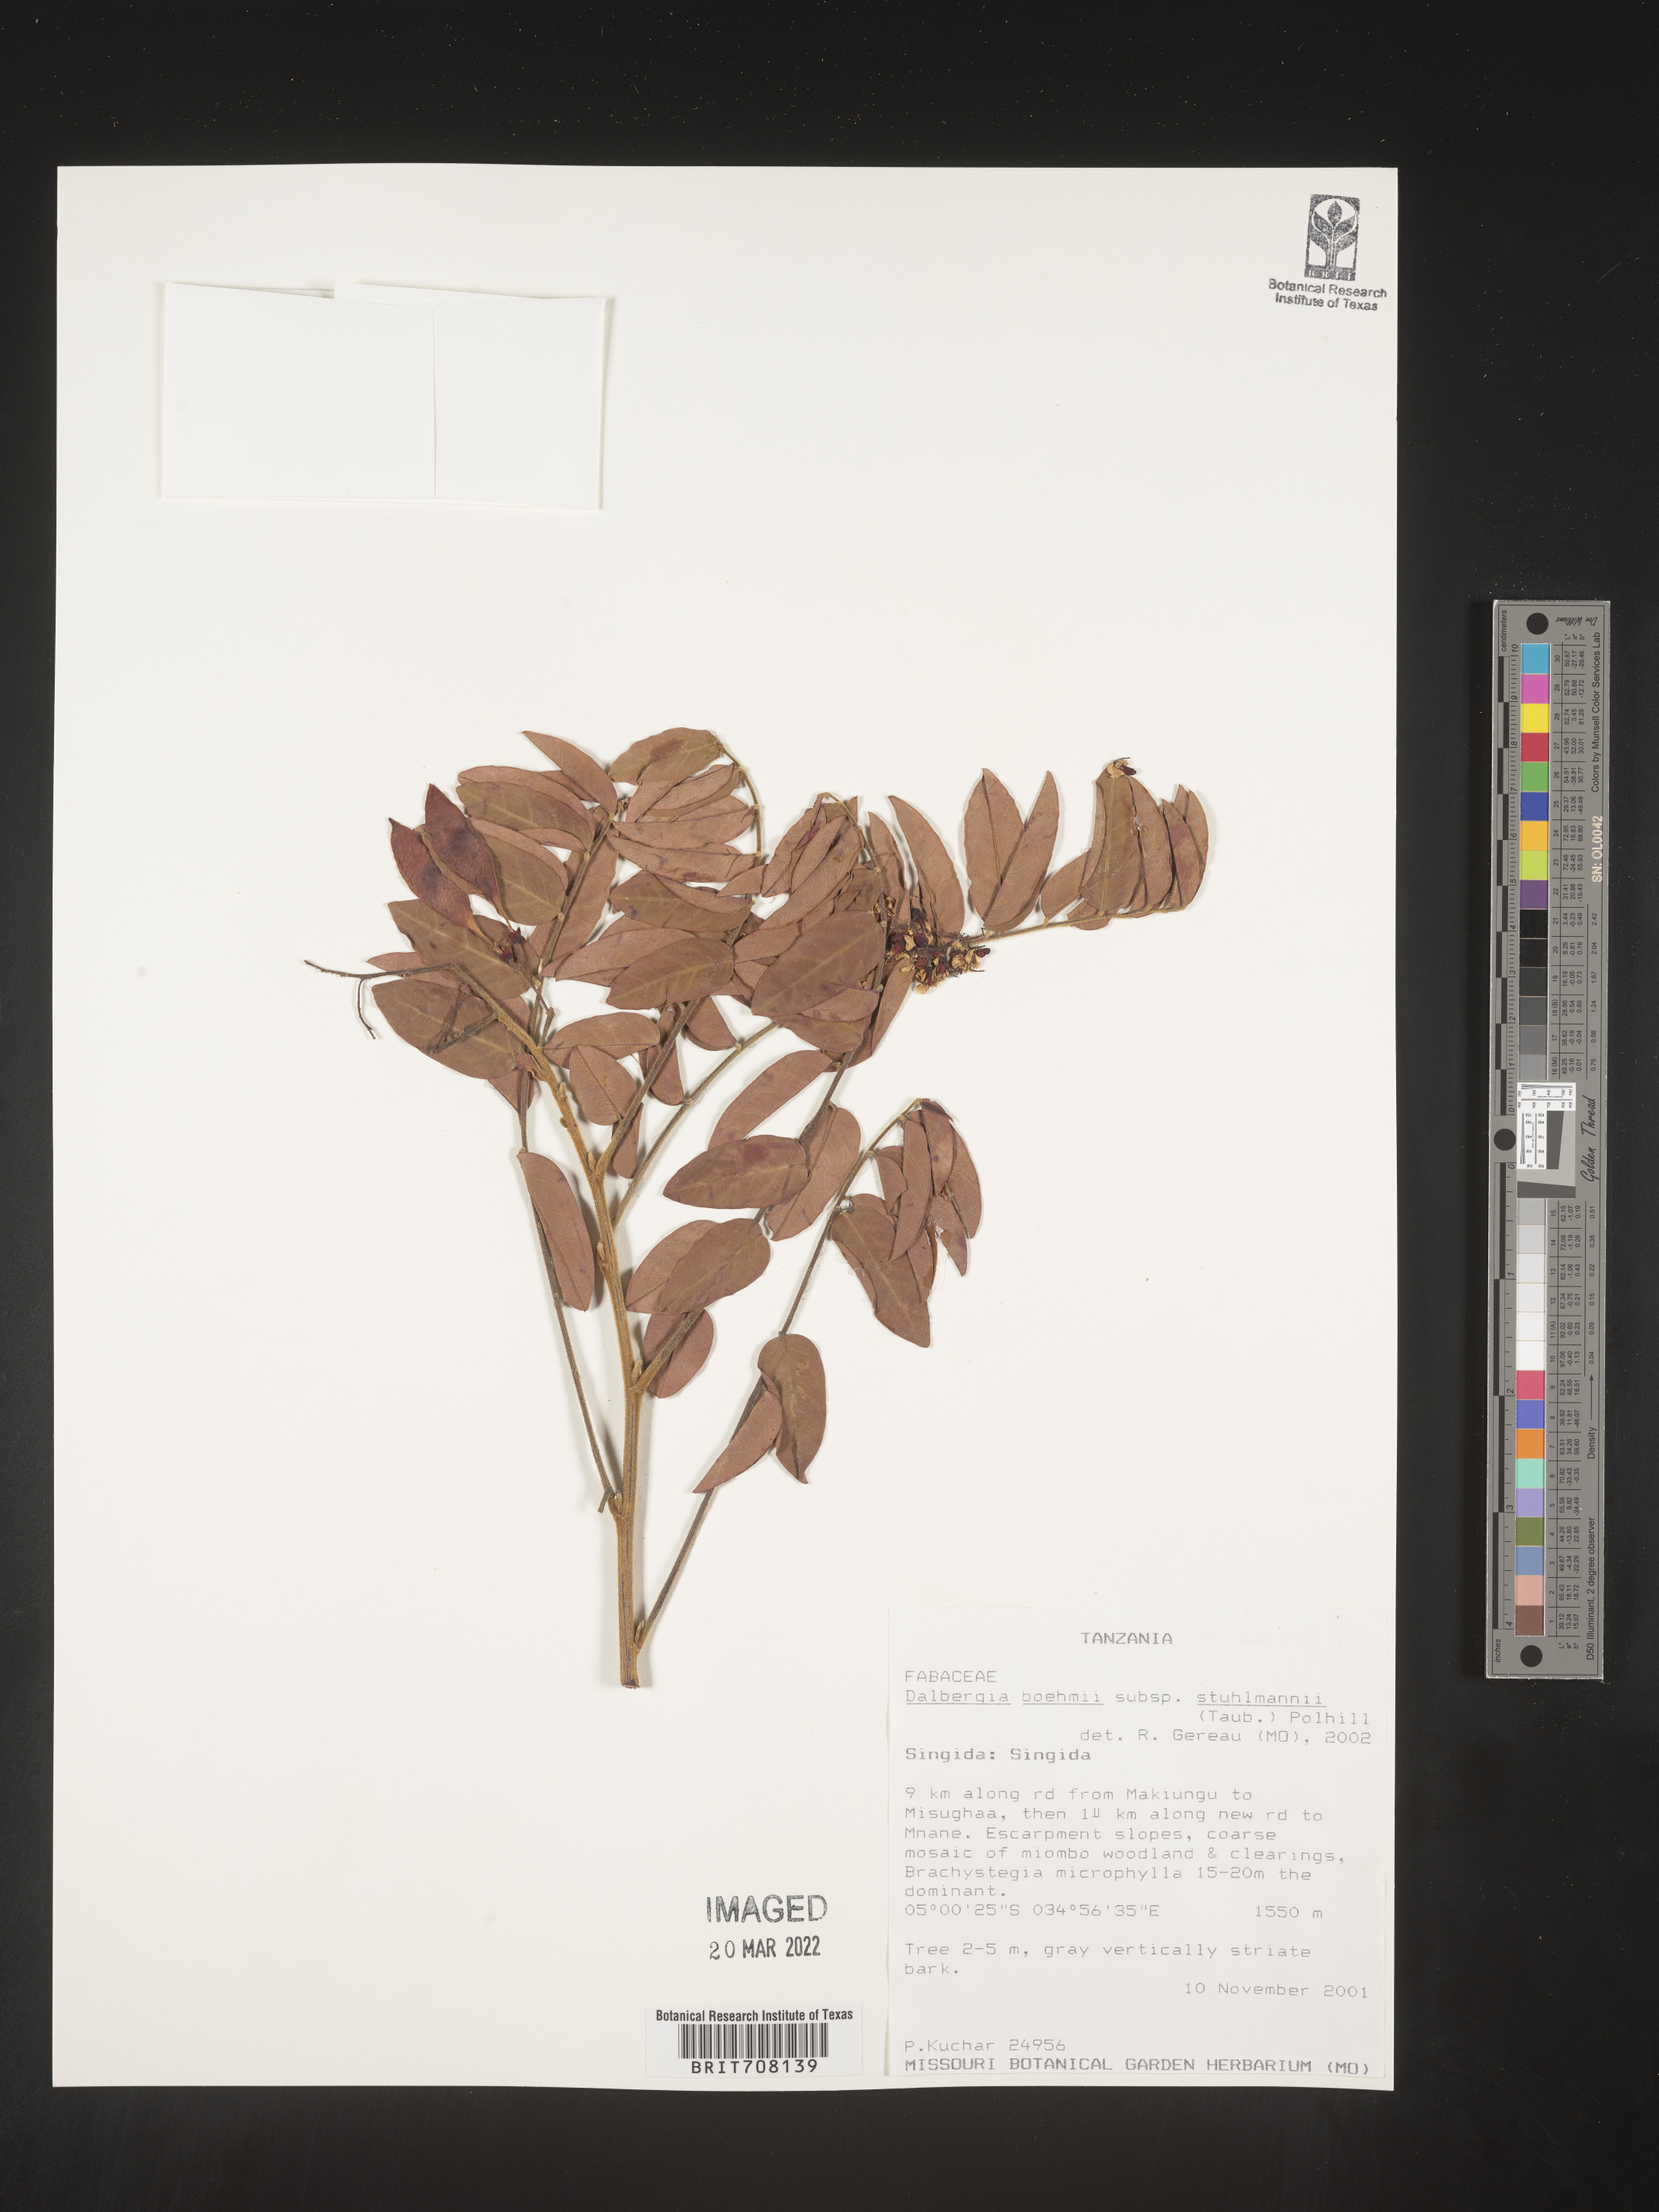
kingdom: Plantae
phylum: Tracheophyta
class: Magnoliopsida
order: Fabales
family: Fabaceae
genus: Dalbergia
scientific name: Dalbergia
